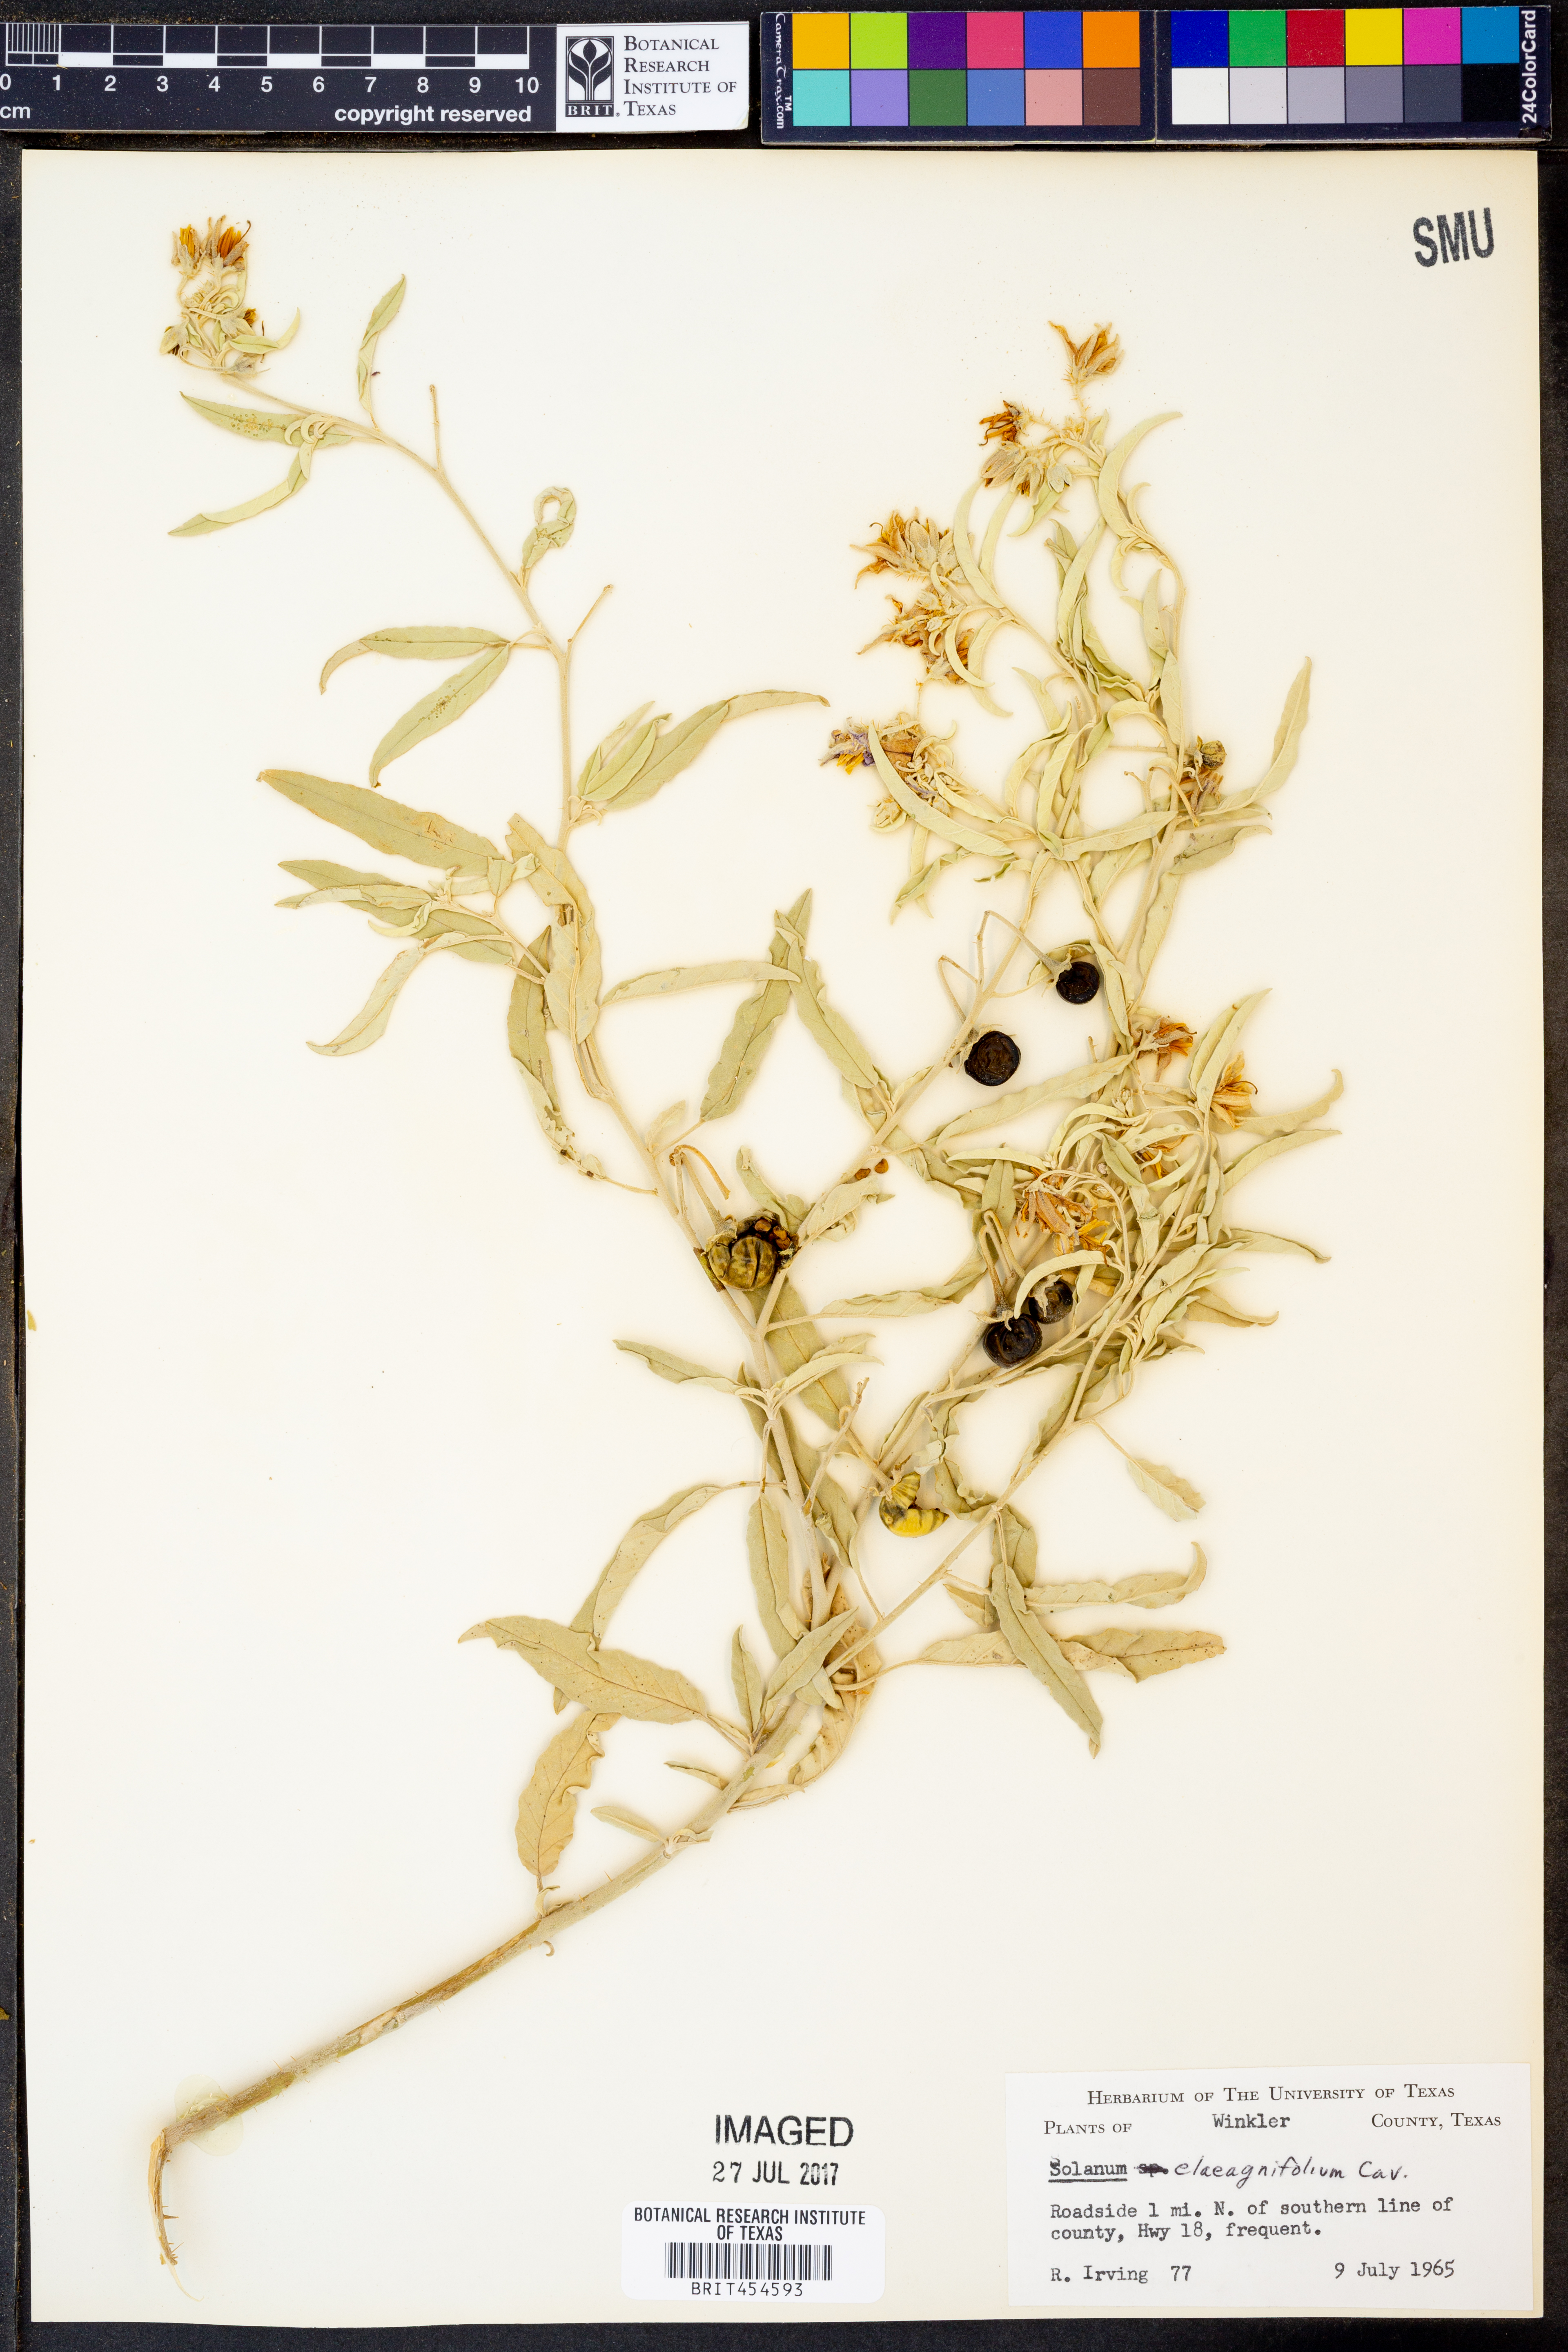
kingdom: Plantae
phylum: Tracheophyta
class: Magnoliopsida
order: Solanales
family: Solanaceae
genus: Solanum
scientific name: Solanum elaeagnifolium
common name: Silverleaf nightshade
